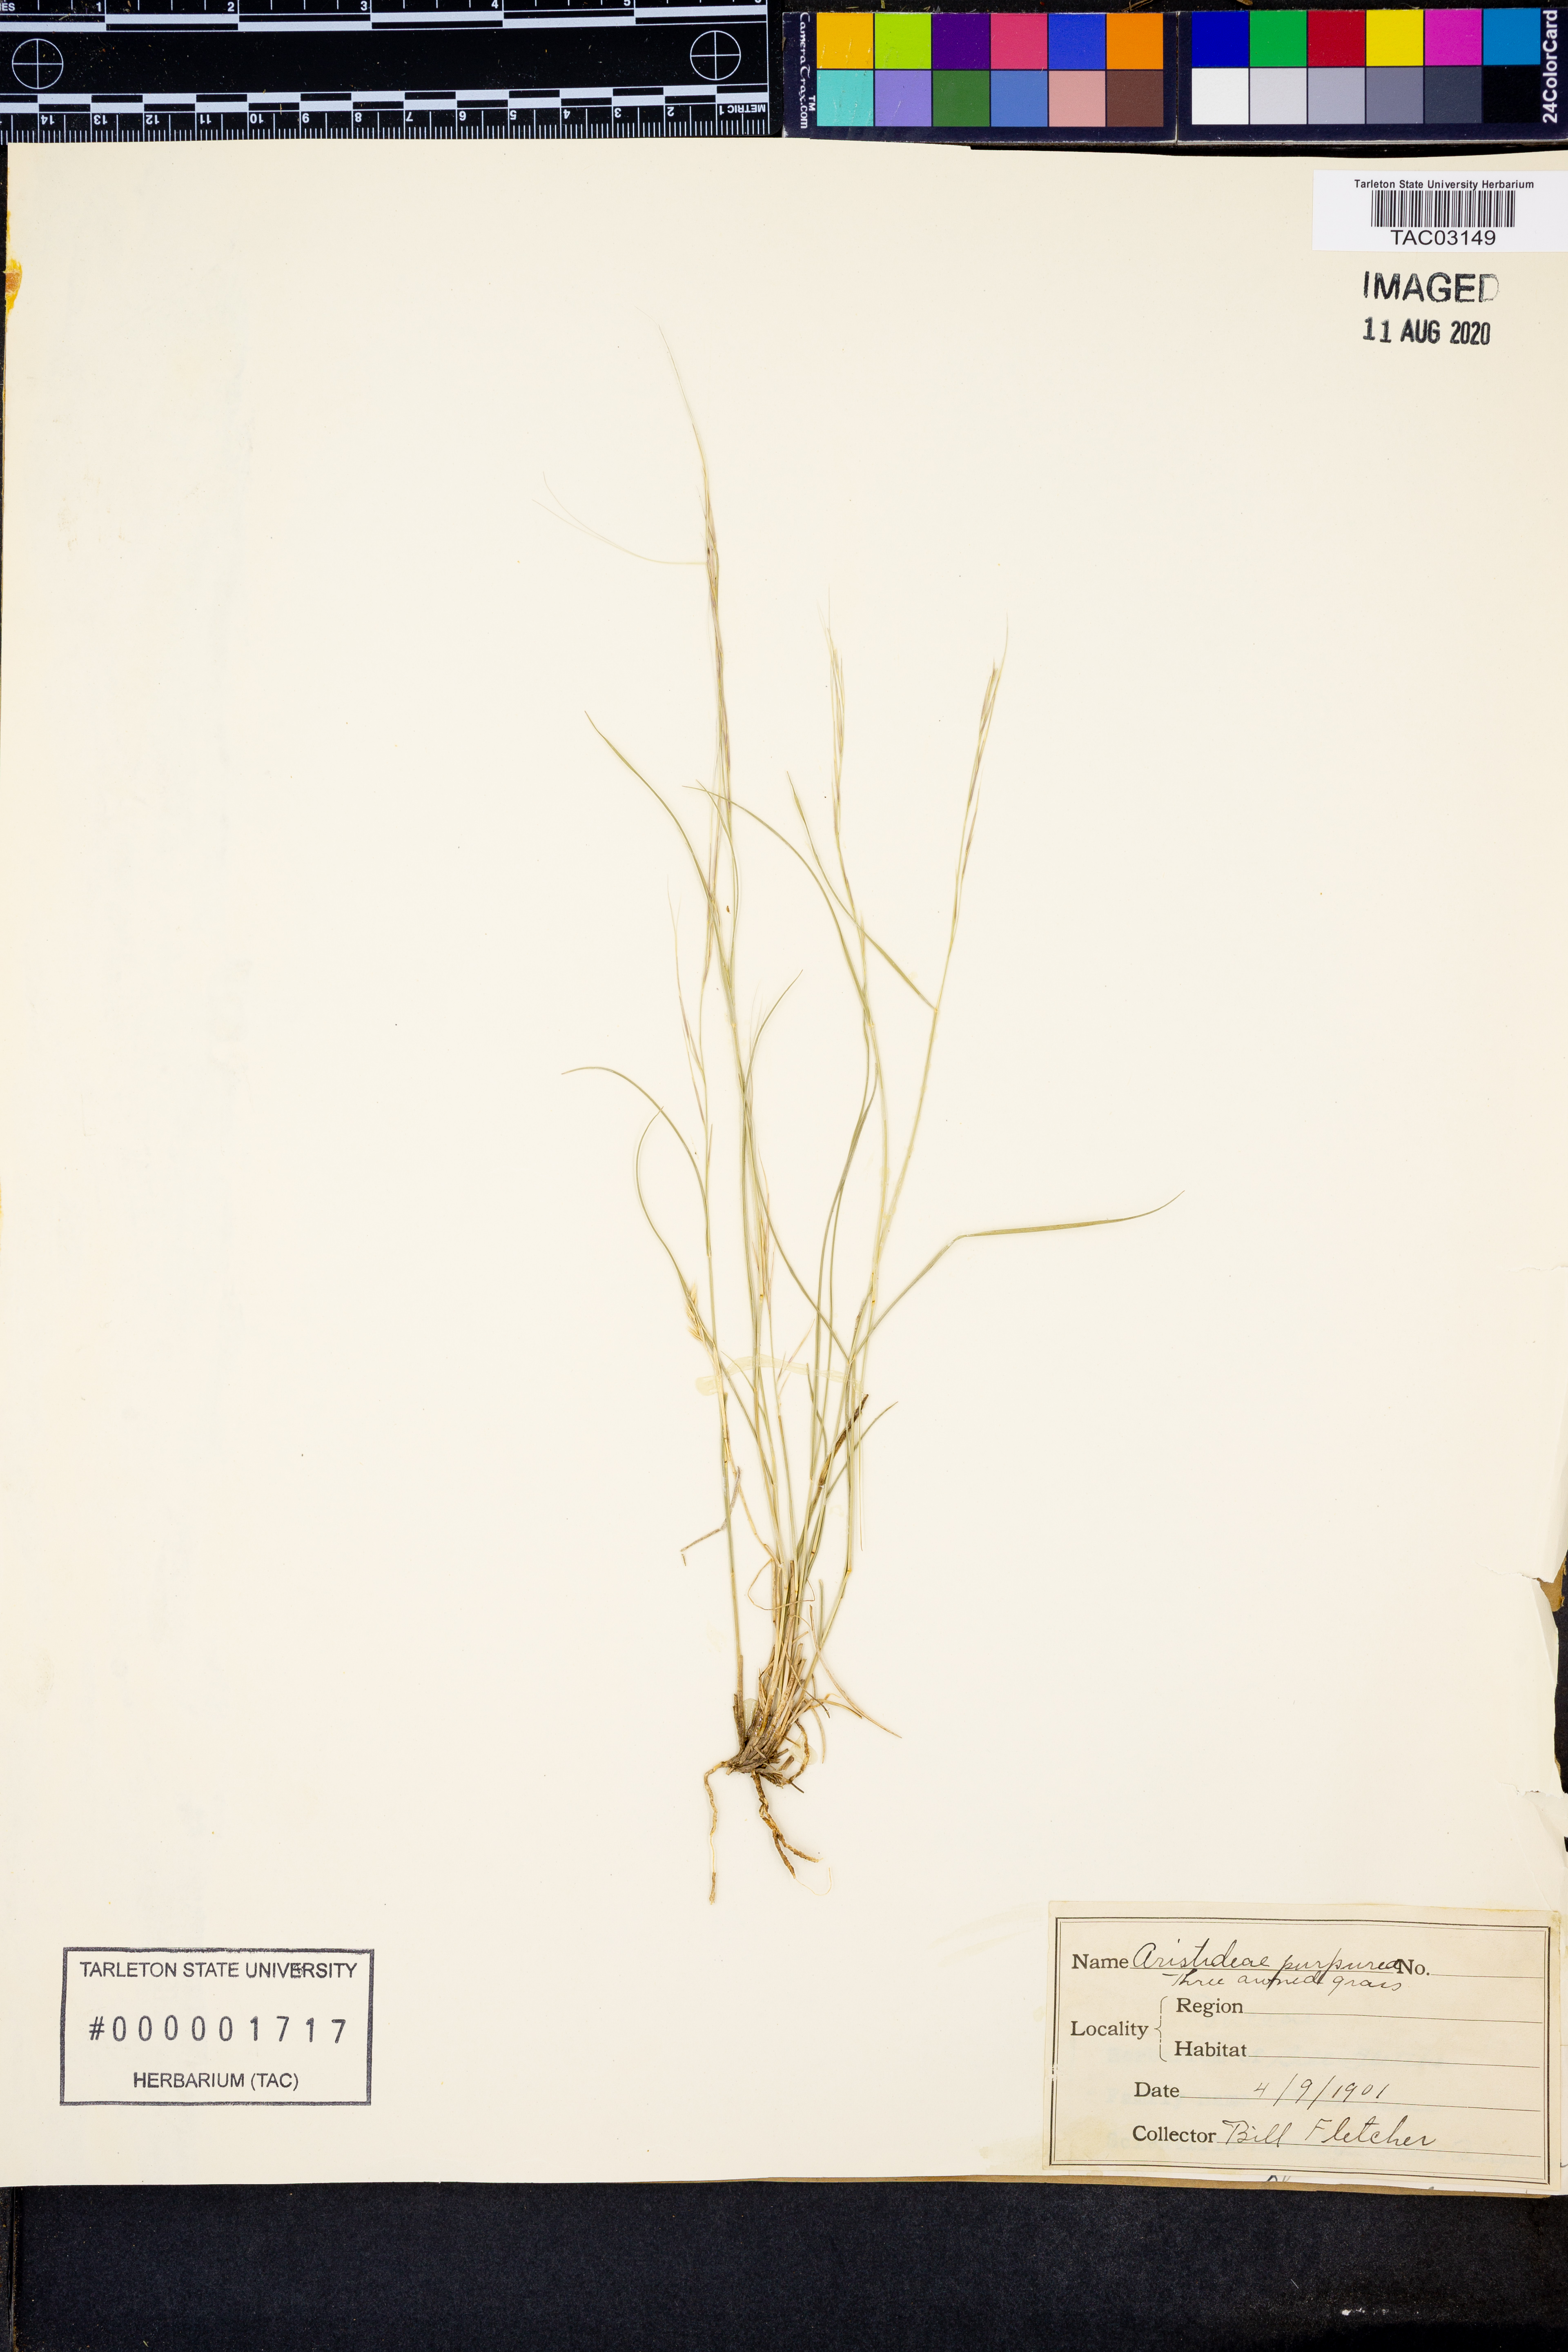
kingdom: Plantae
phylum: Tracheophyta
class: Liliopsida
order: Poales
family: Poaceae
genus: Aristida
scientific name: Aristida purpurascens
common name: Arrow-feather
